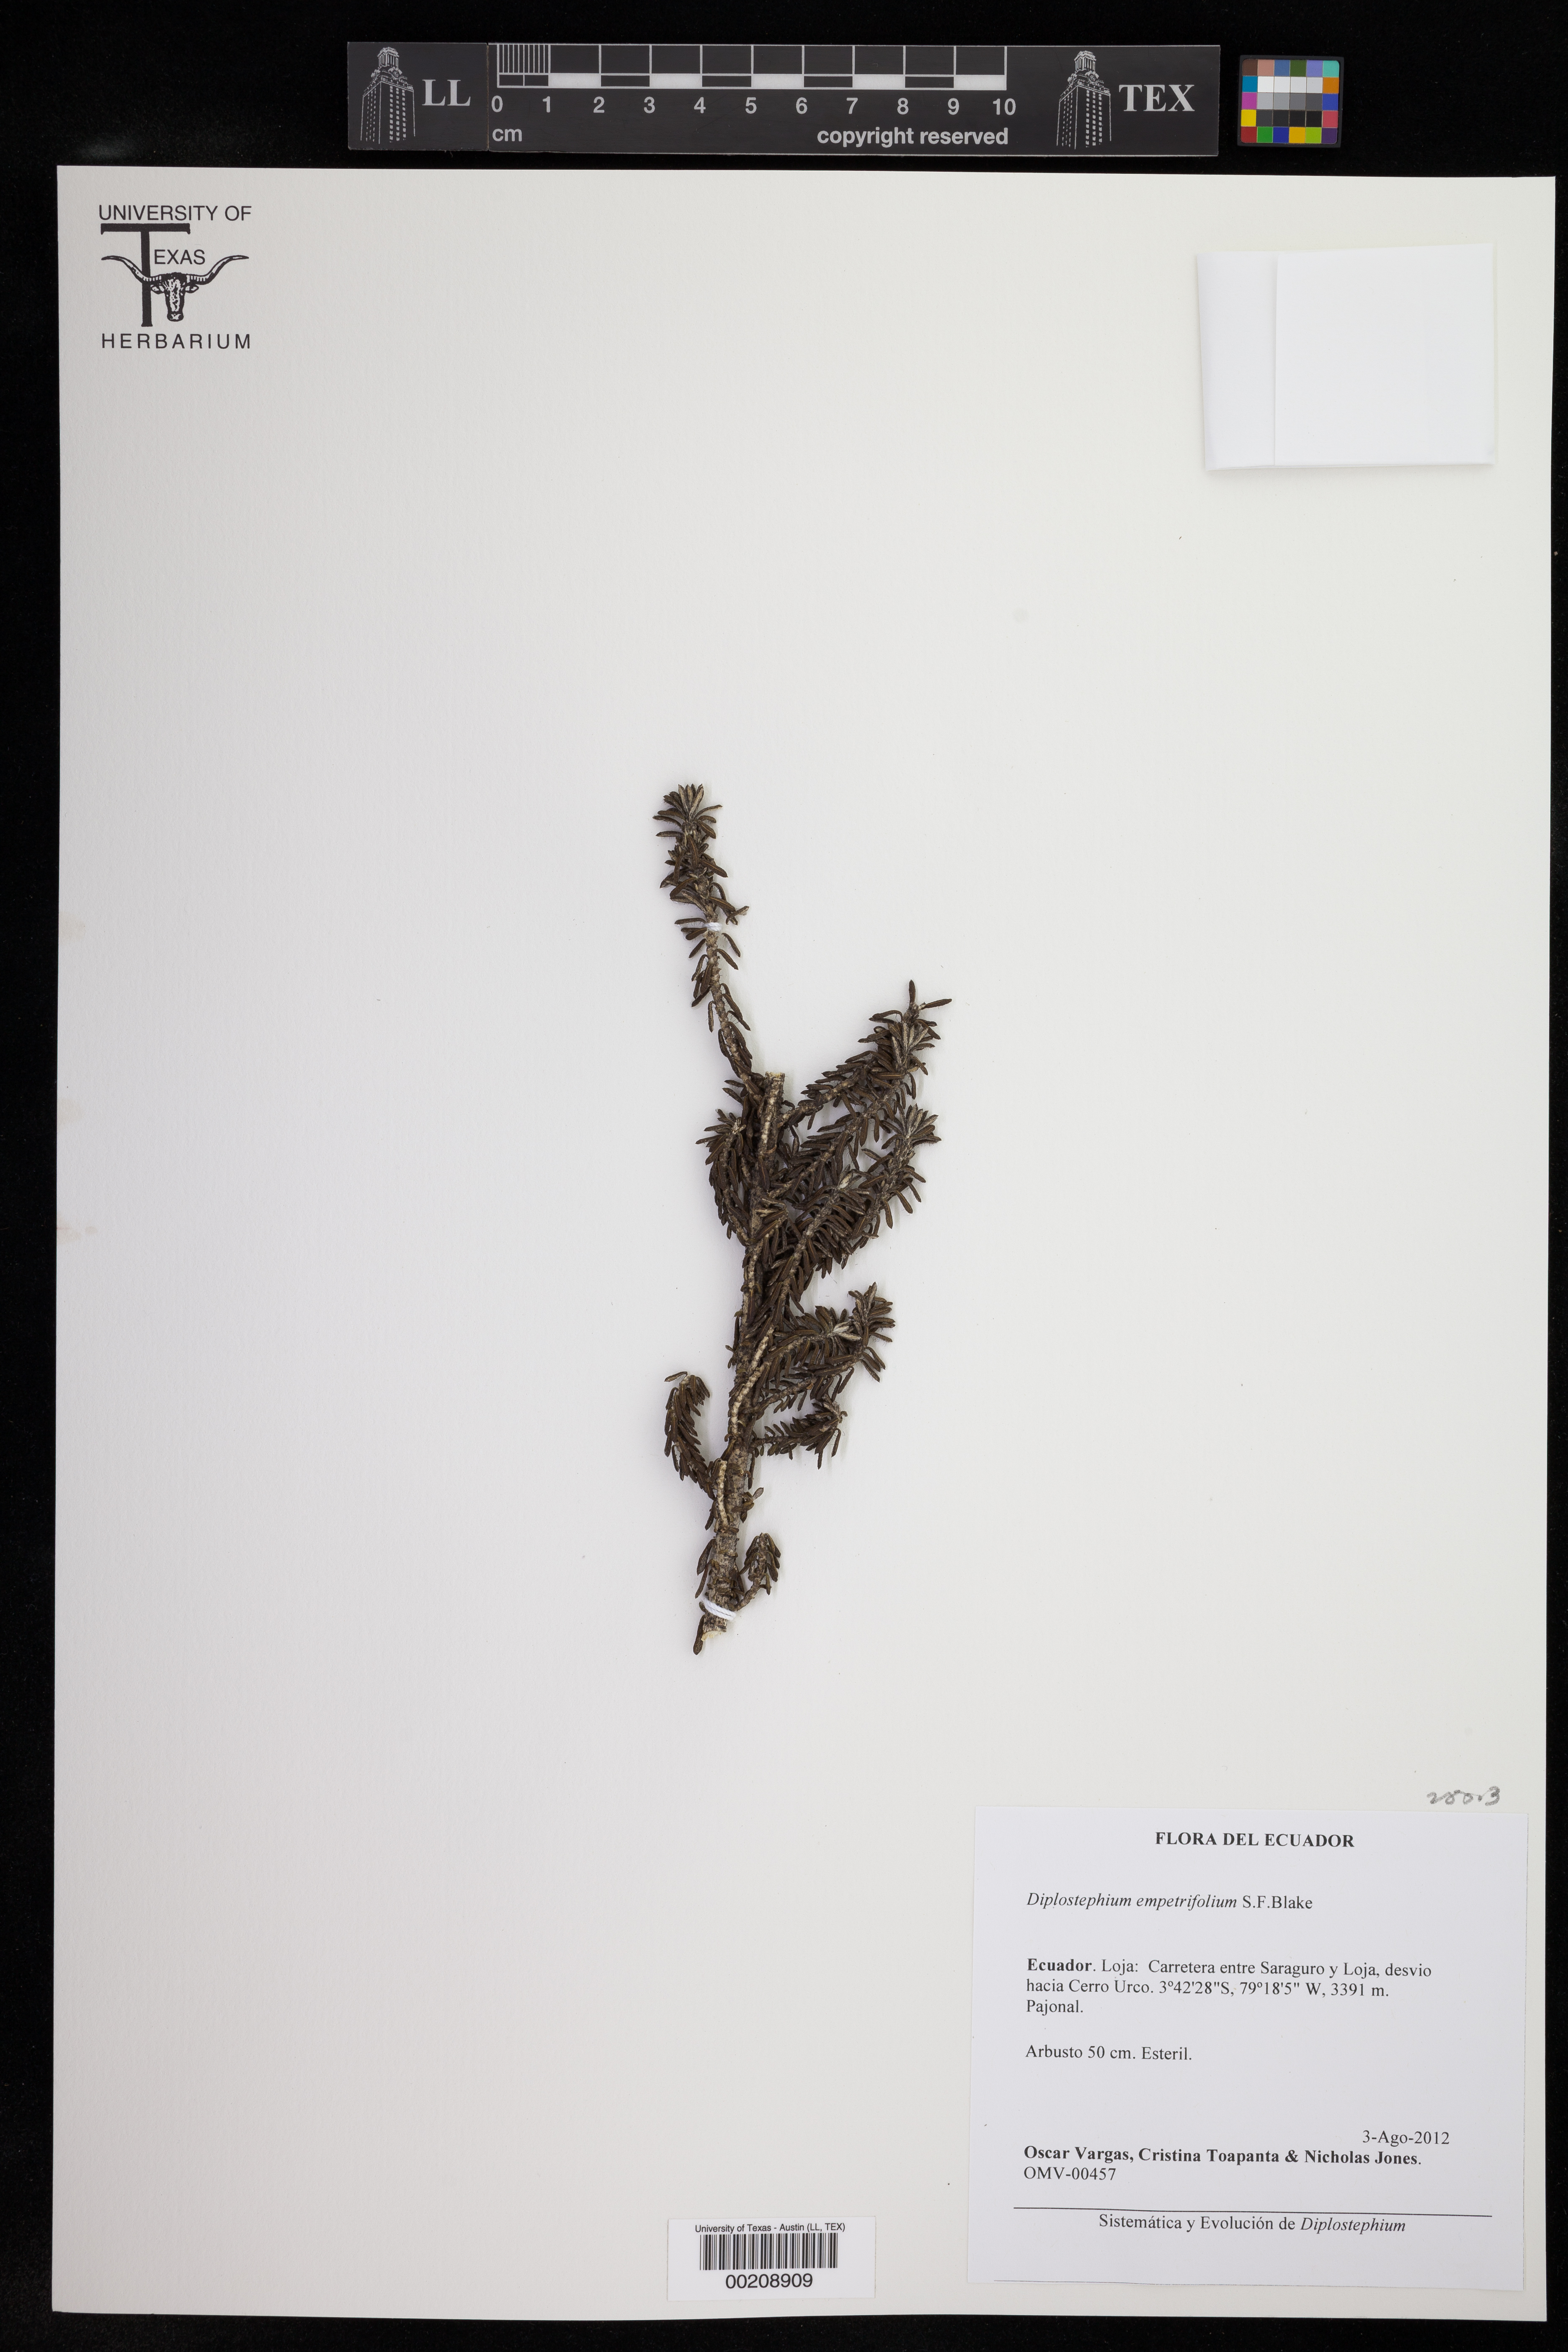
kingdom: Plantae
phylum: Tracheophyta
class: Magnoliopsida
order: Asterales
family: Asteraceae
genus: Diplostephium
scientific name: Diplostephium empetrifolium
